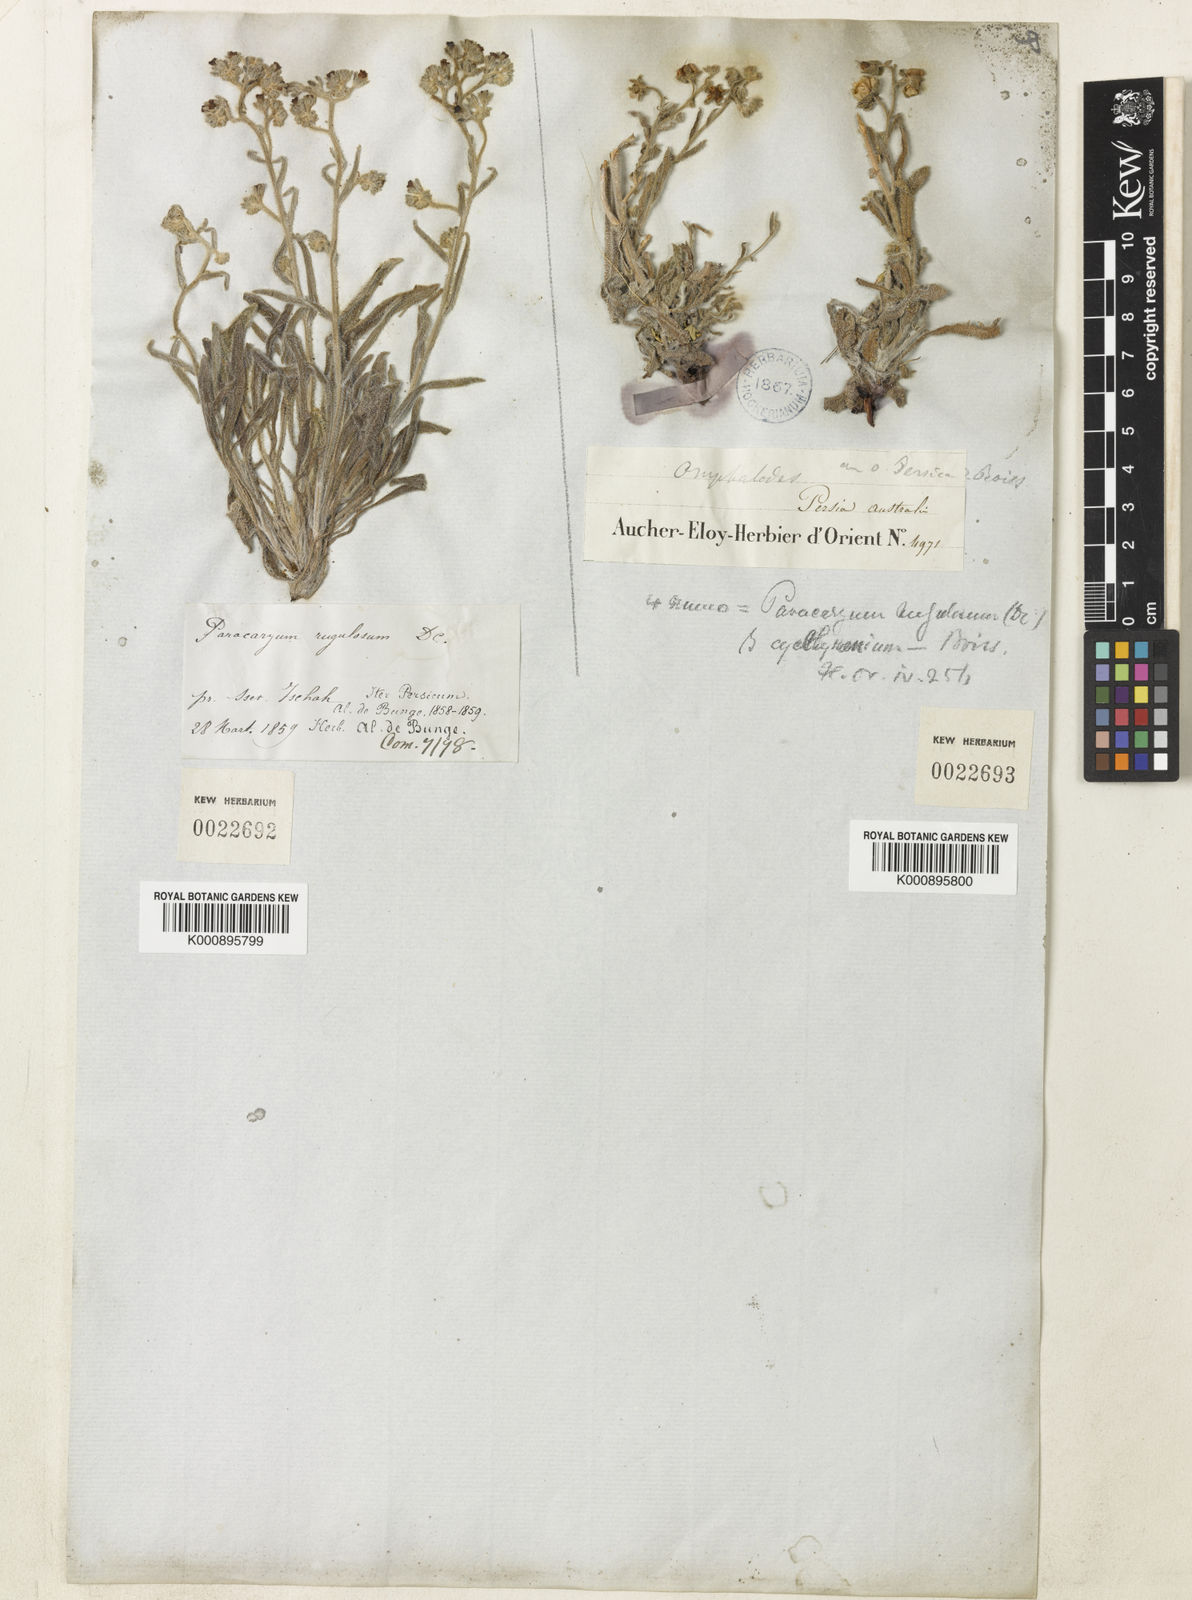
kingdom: Plantae
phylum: Tracheophyta
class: Magnoliopsida
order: Boraginales
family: Boraginaceae
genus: Paracaryum
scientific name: Paracaryum rugulosum
